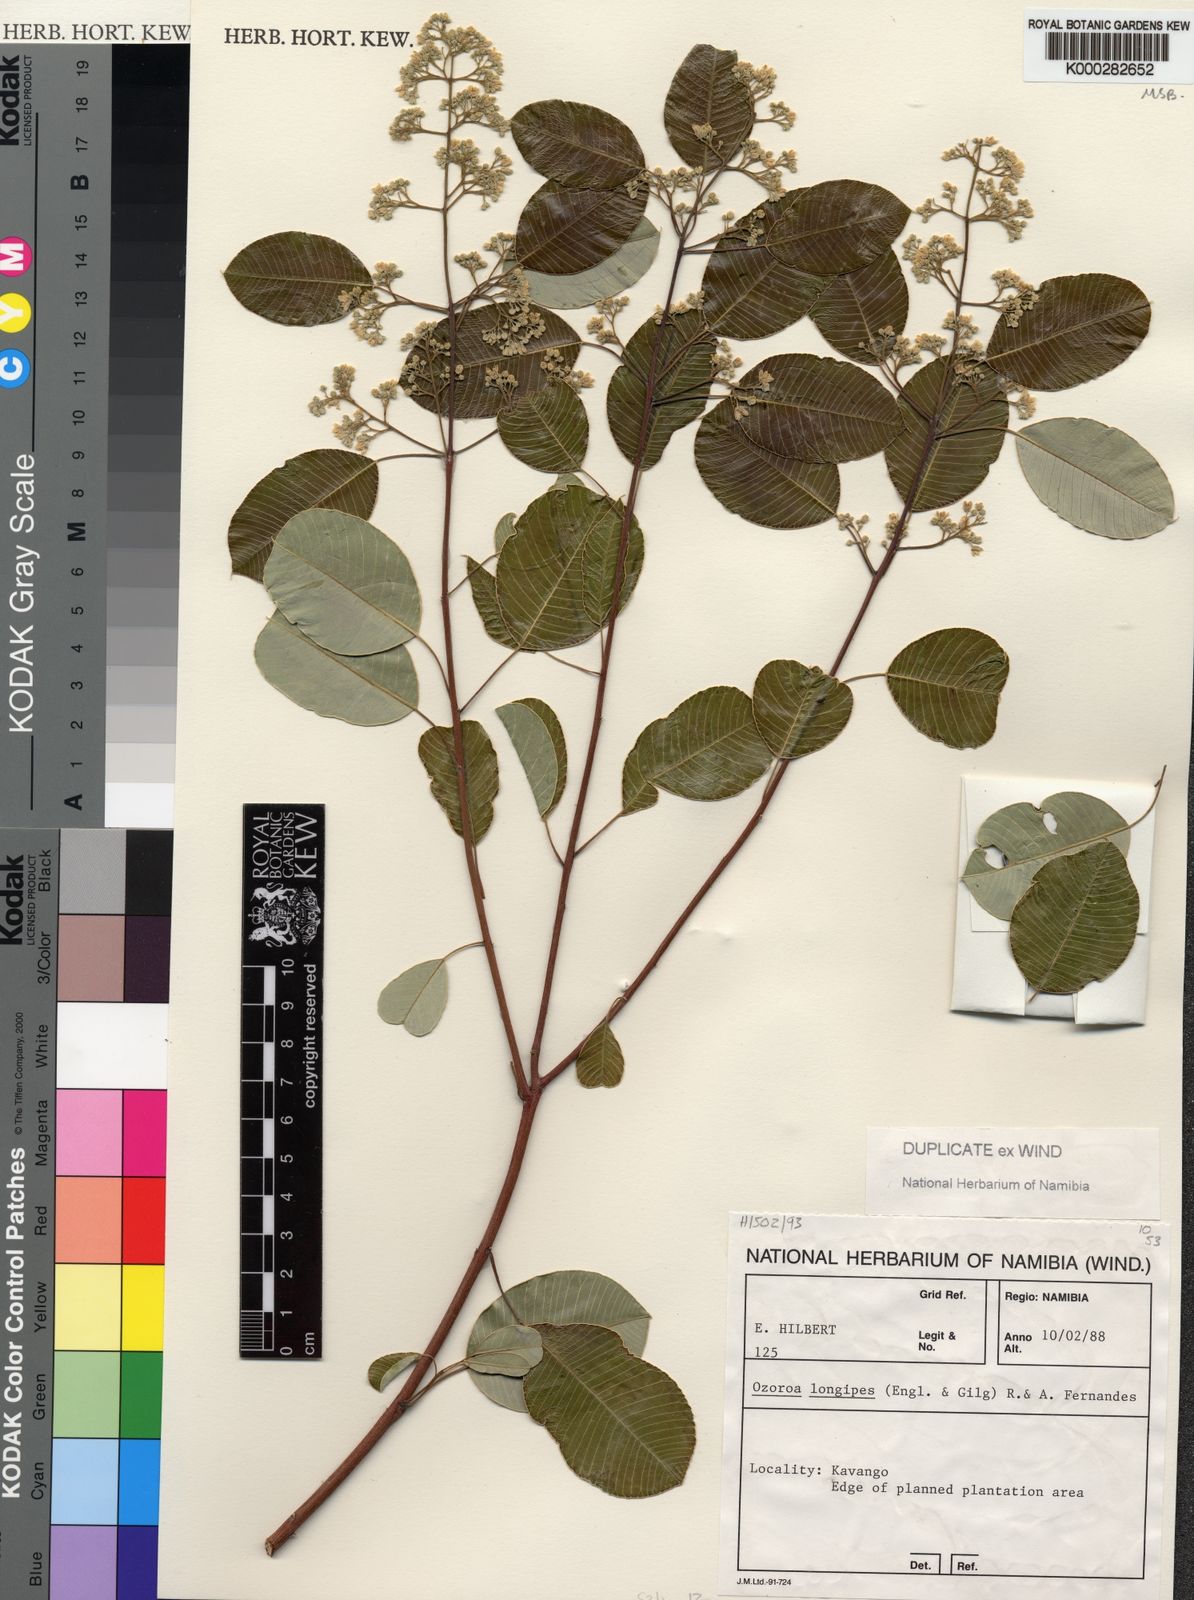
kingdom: Plantae
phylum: Tracheophyta
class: Magnoliopsida
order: Sapindales
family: Anacardiaceae
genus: Ozoroa
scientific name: Ozoroa longipes
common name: Round-leaved resin tree
